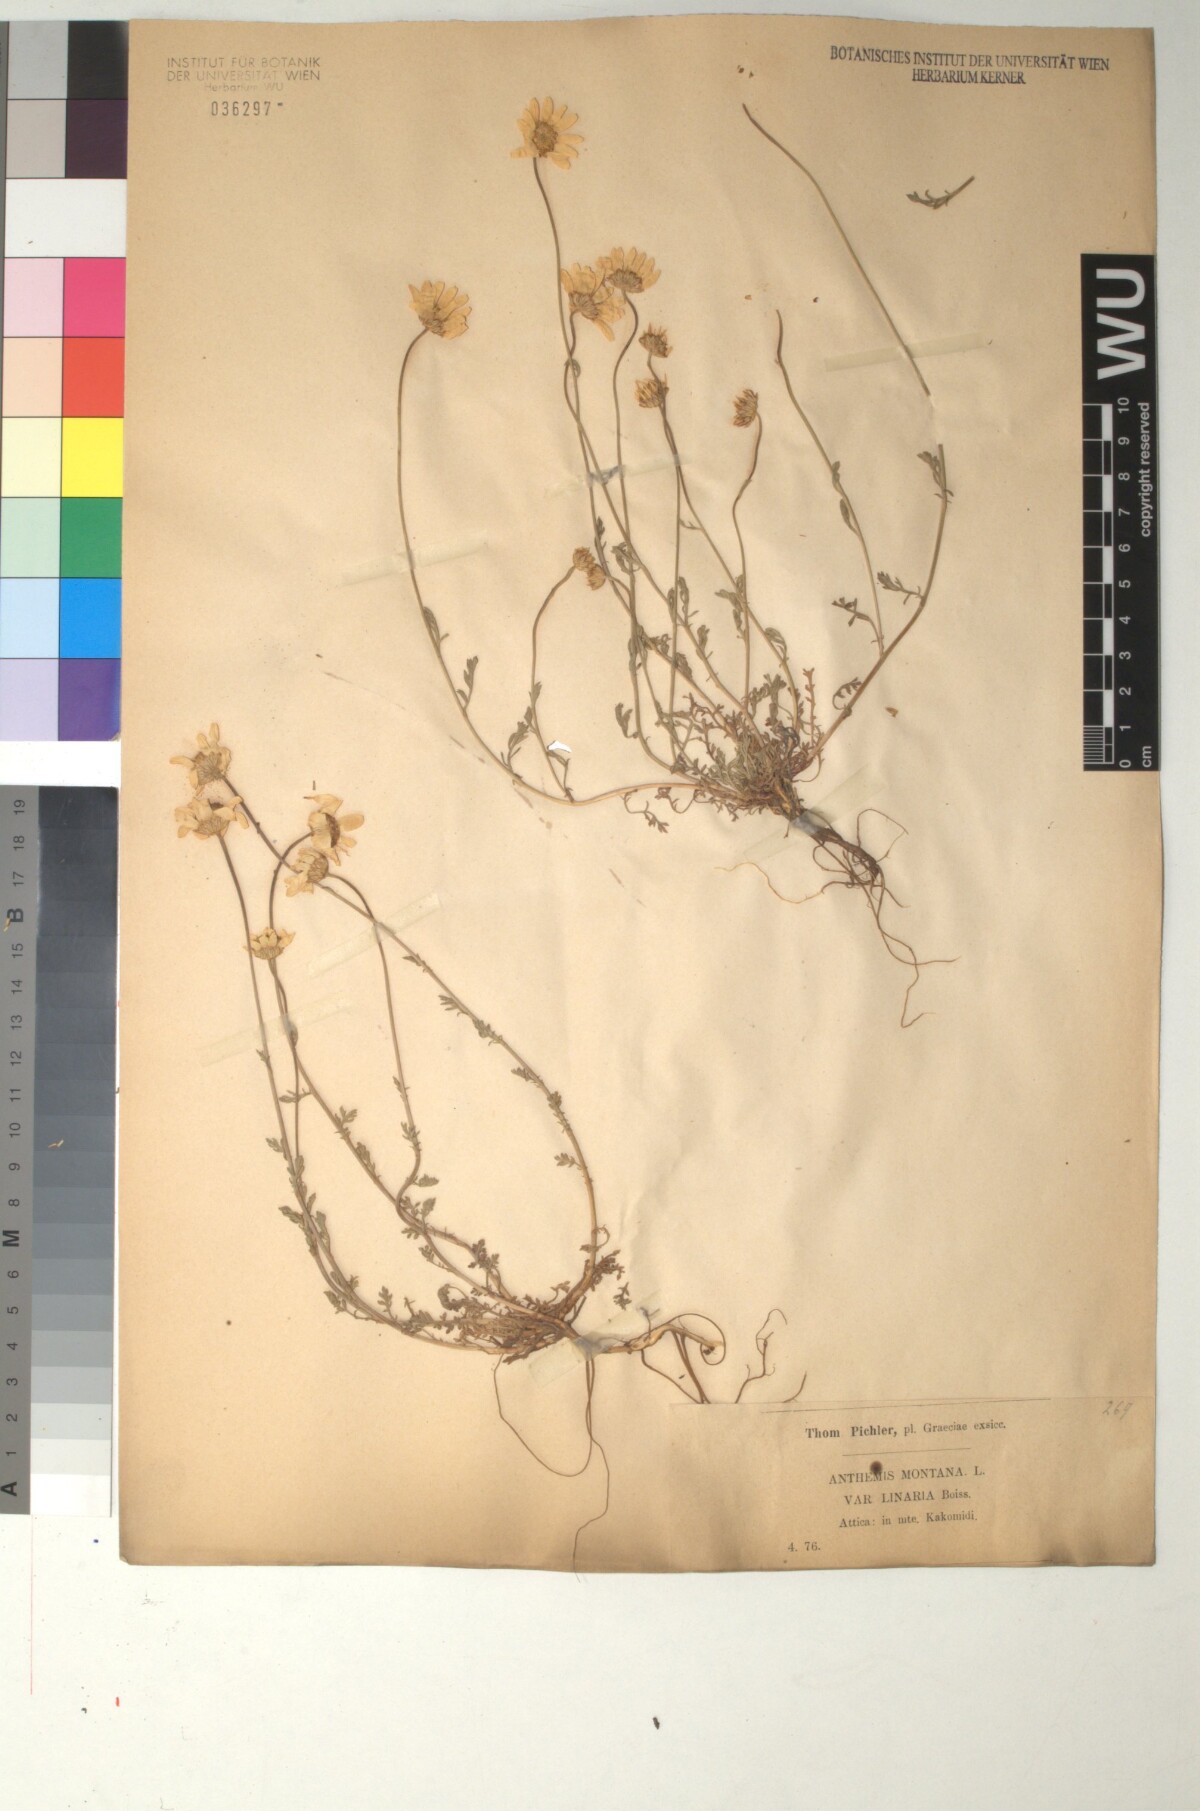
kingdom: Plantae
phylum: Tracheophyta
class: Magnoliopsida
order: Asterales
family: Asteraceae
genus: Anthemis
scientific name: Anthemis cretica
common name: Mountain dog-daisy
